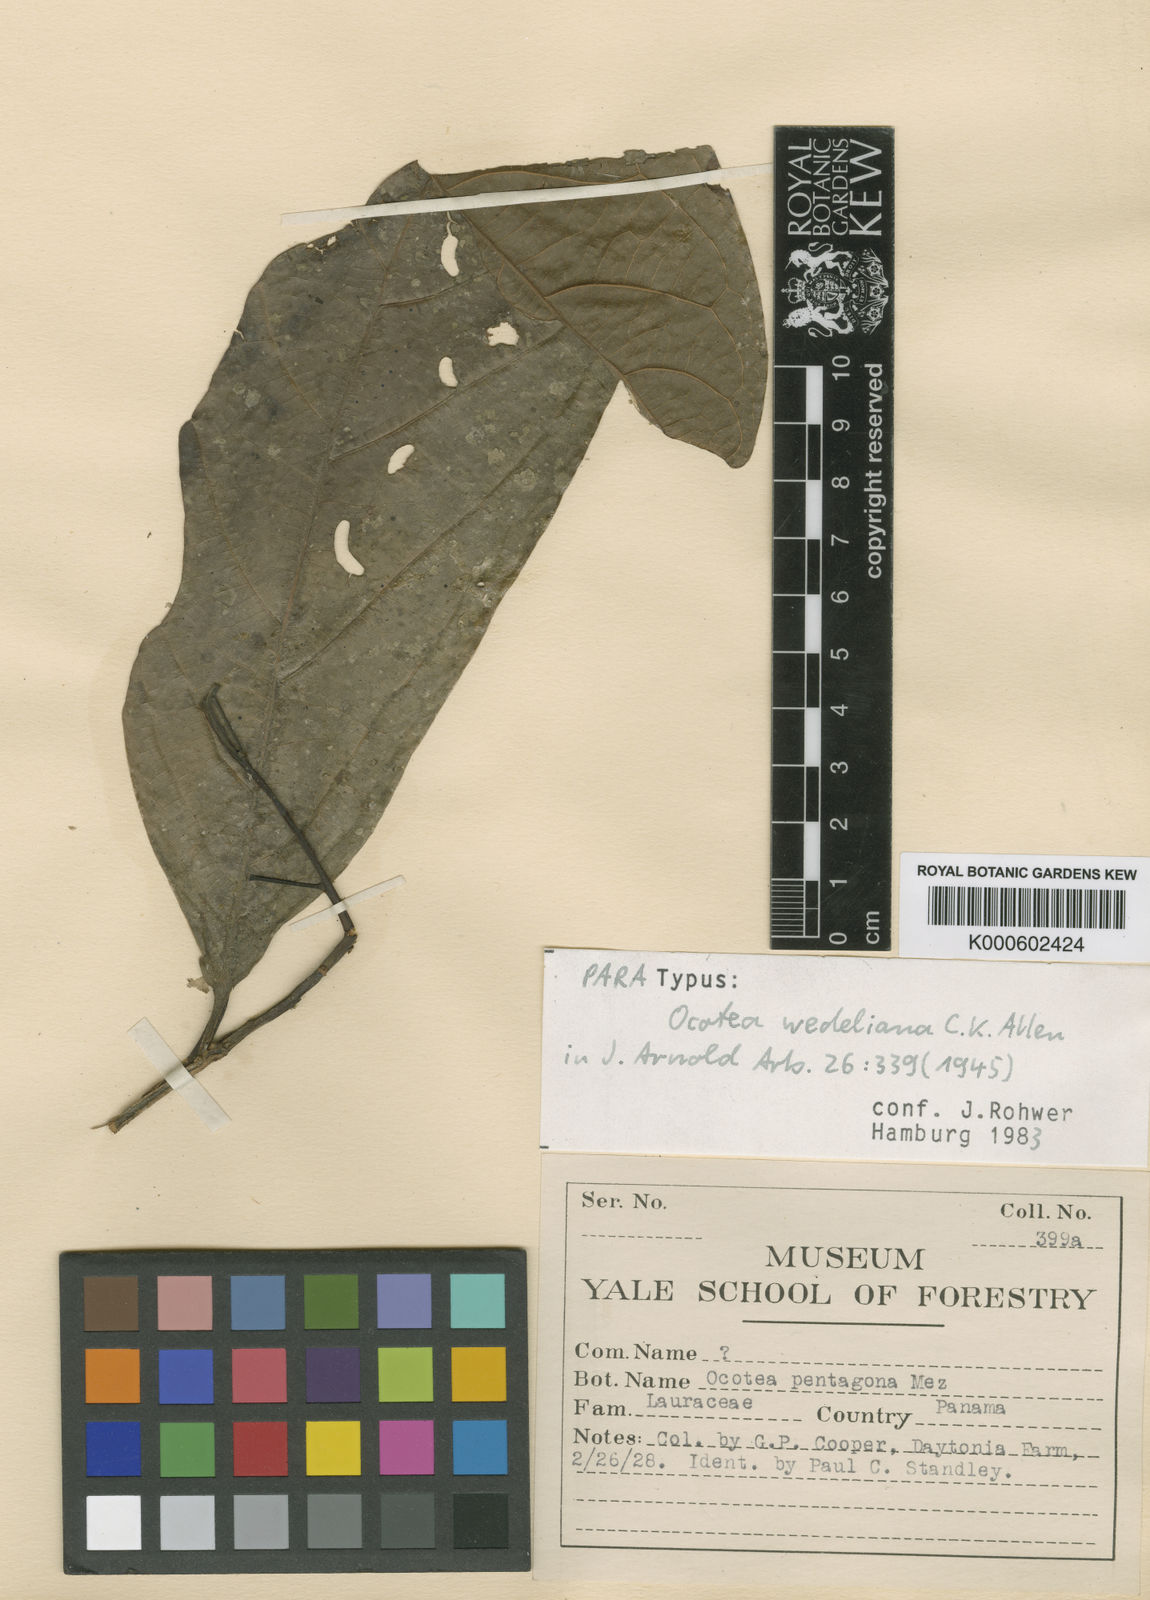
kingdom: Plantae
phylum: Tracheophyta
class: Magnoliopsida
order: Laurales
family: Lauraceae
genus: Ocotea
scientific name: Ocotea wedeliana
